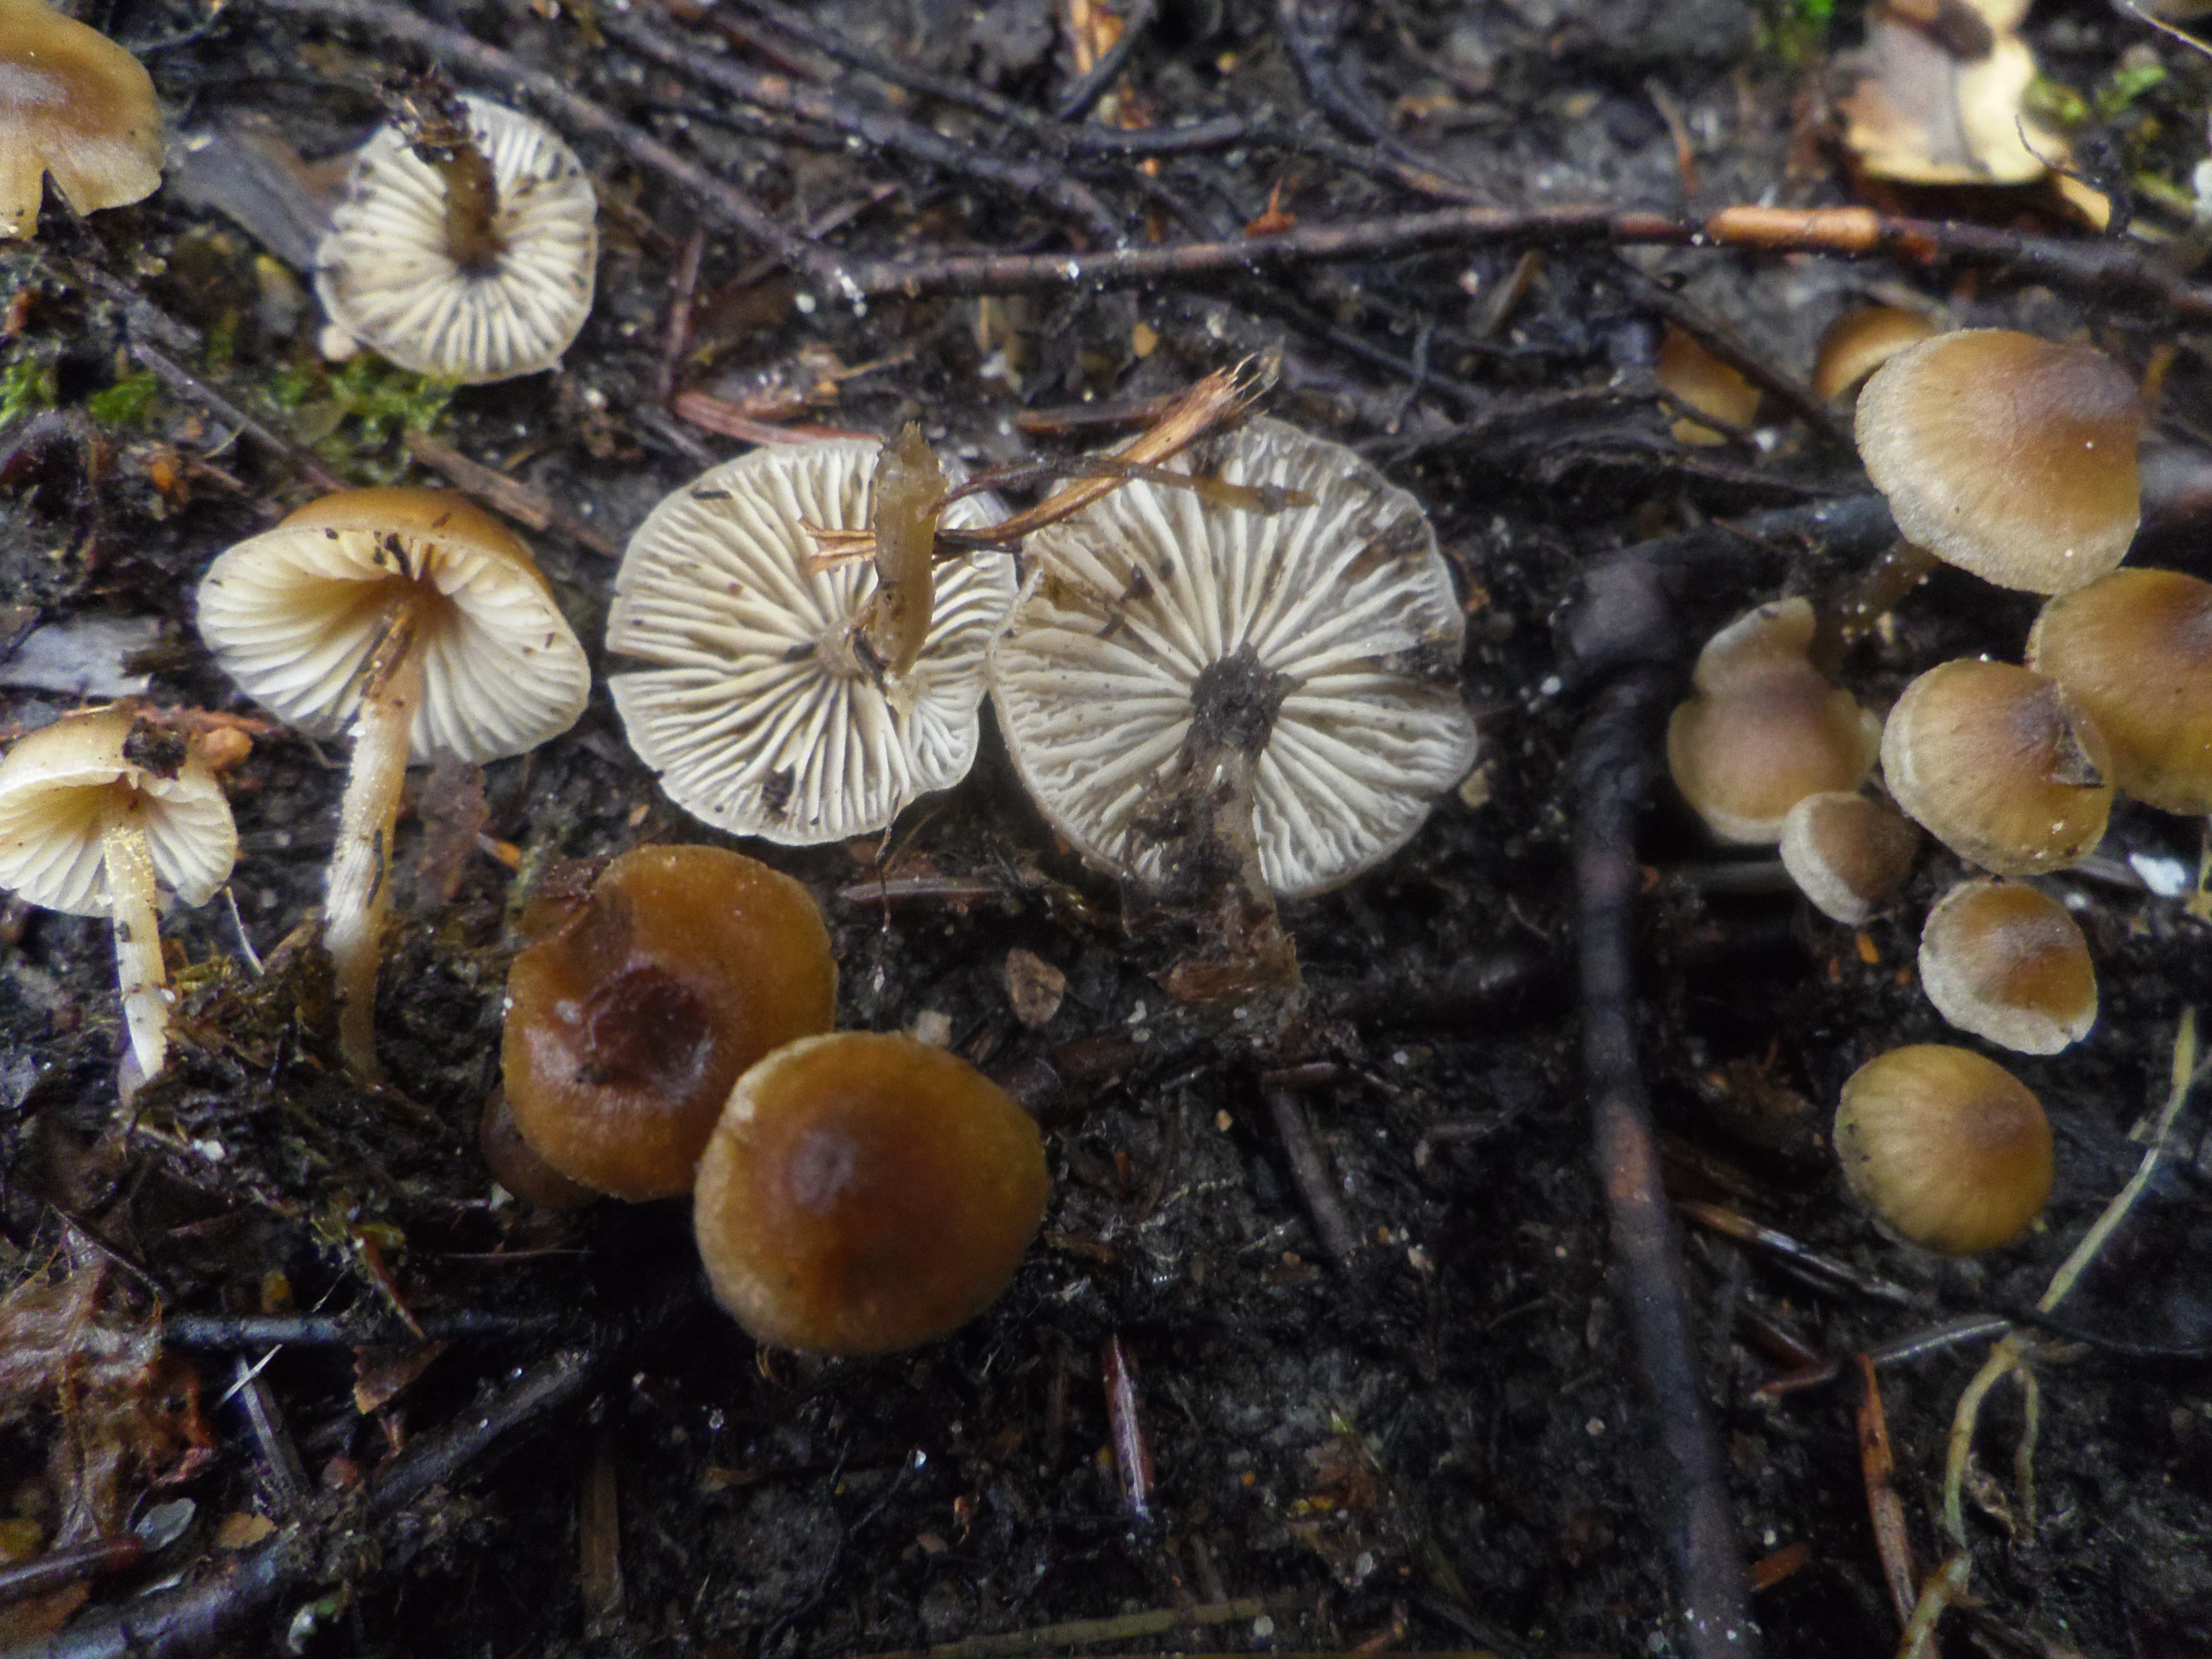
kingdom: Fungi
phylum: Basidiomycota
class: Agaricomycetes
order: Agaricales
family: Lyophyllaceae
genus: Sagaranella
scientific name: Sagaranella tylicolor
